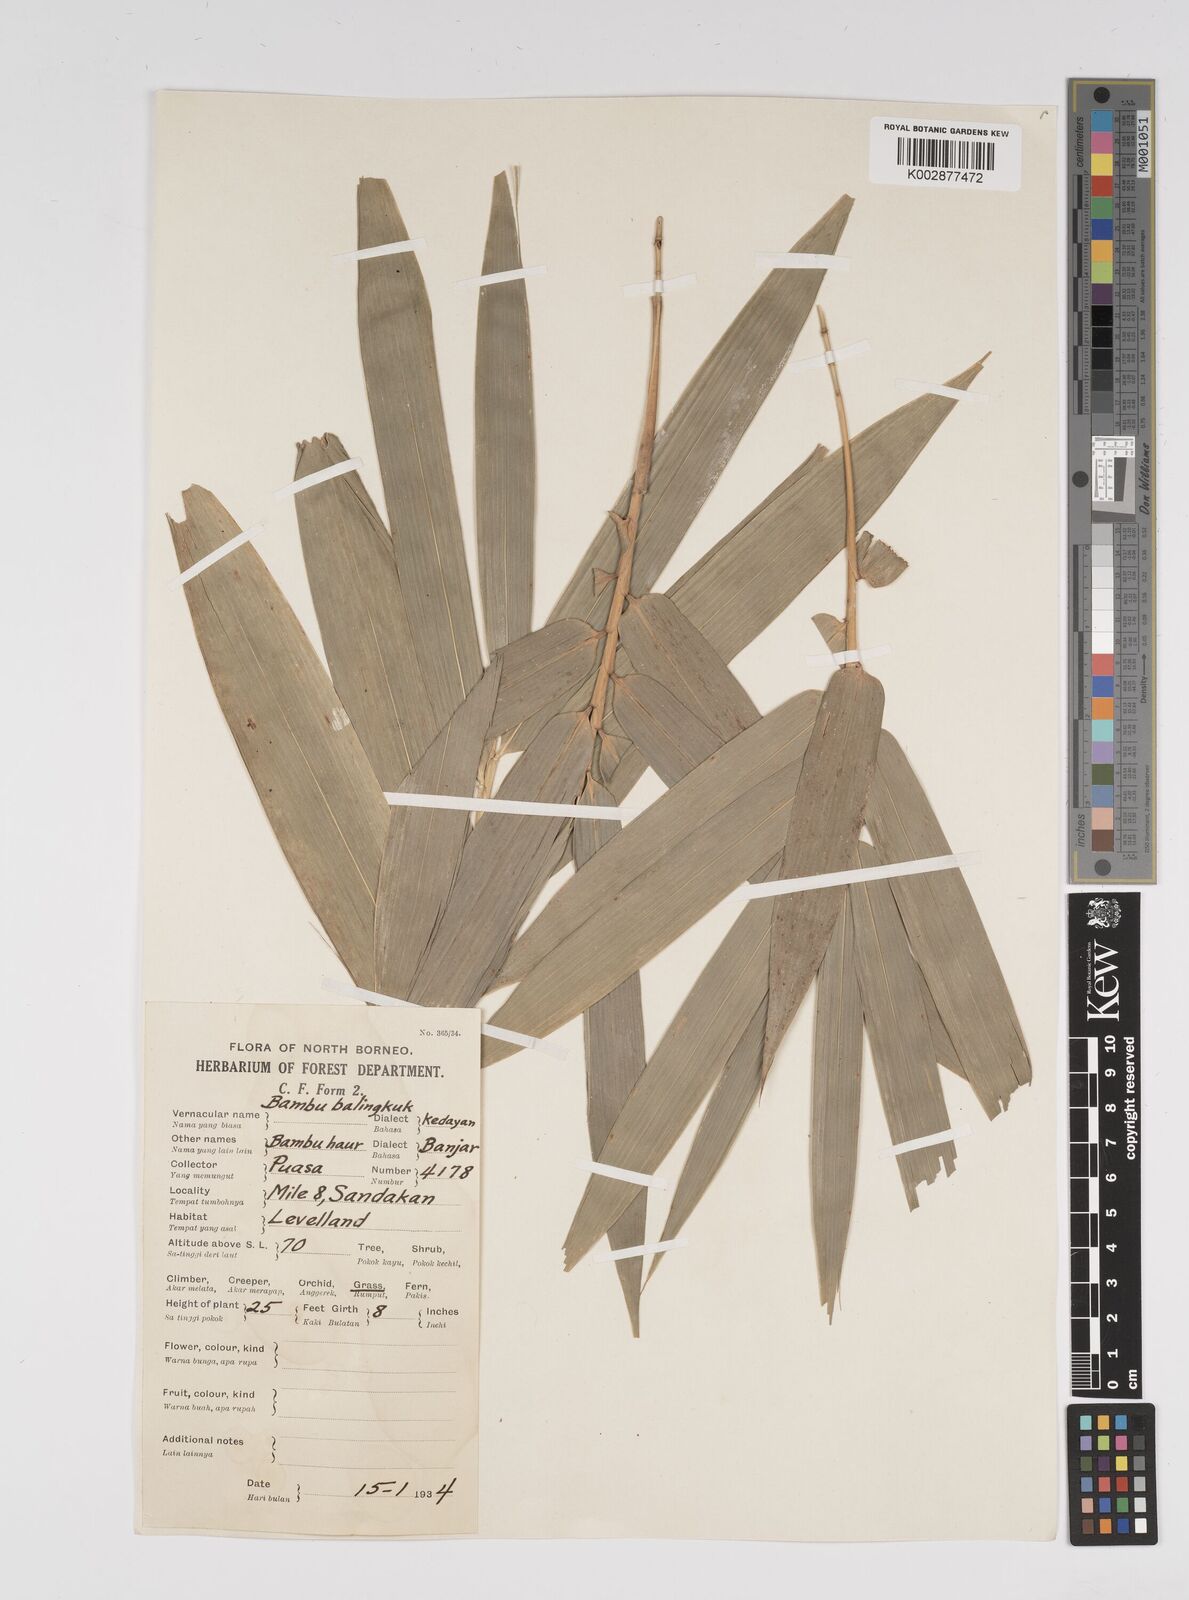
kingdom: Plantae
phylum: Tracheophyta
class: Liliopsida
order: Poales
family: Poaceae
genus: Bambusa
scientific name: Bambusa
